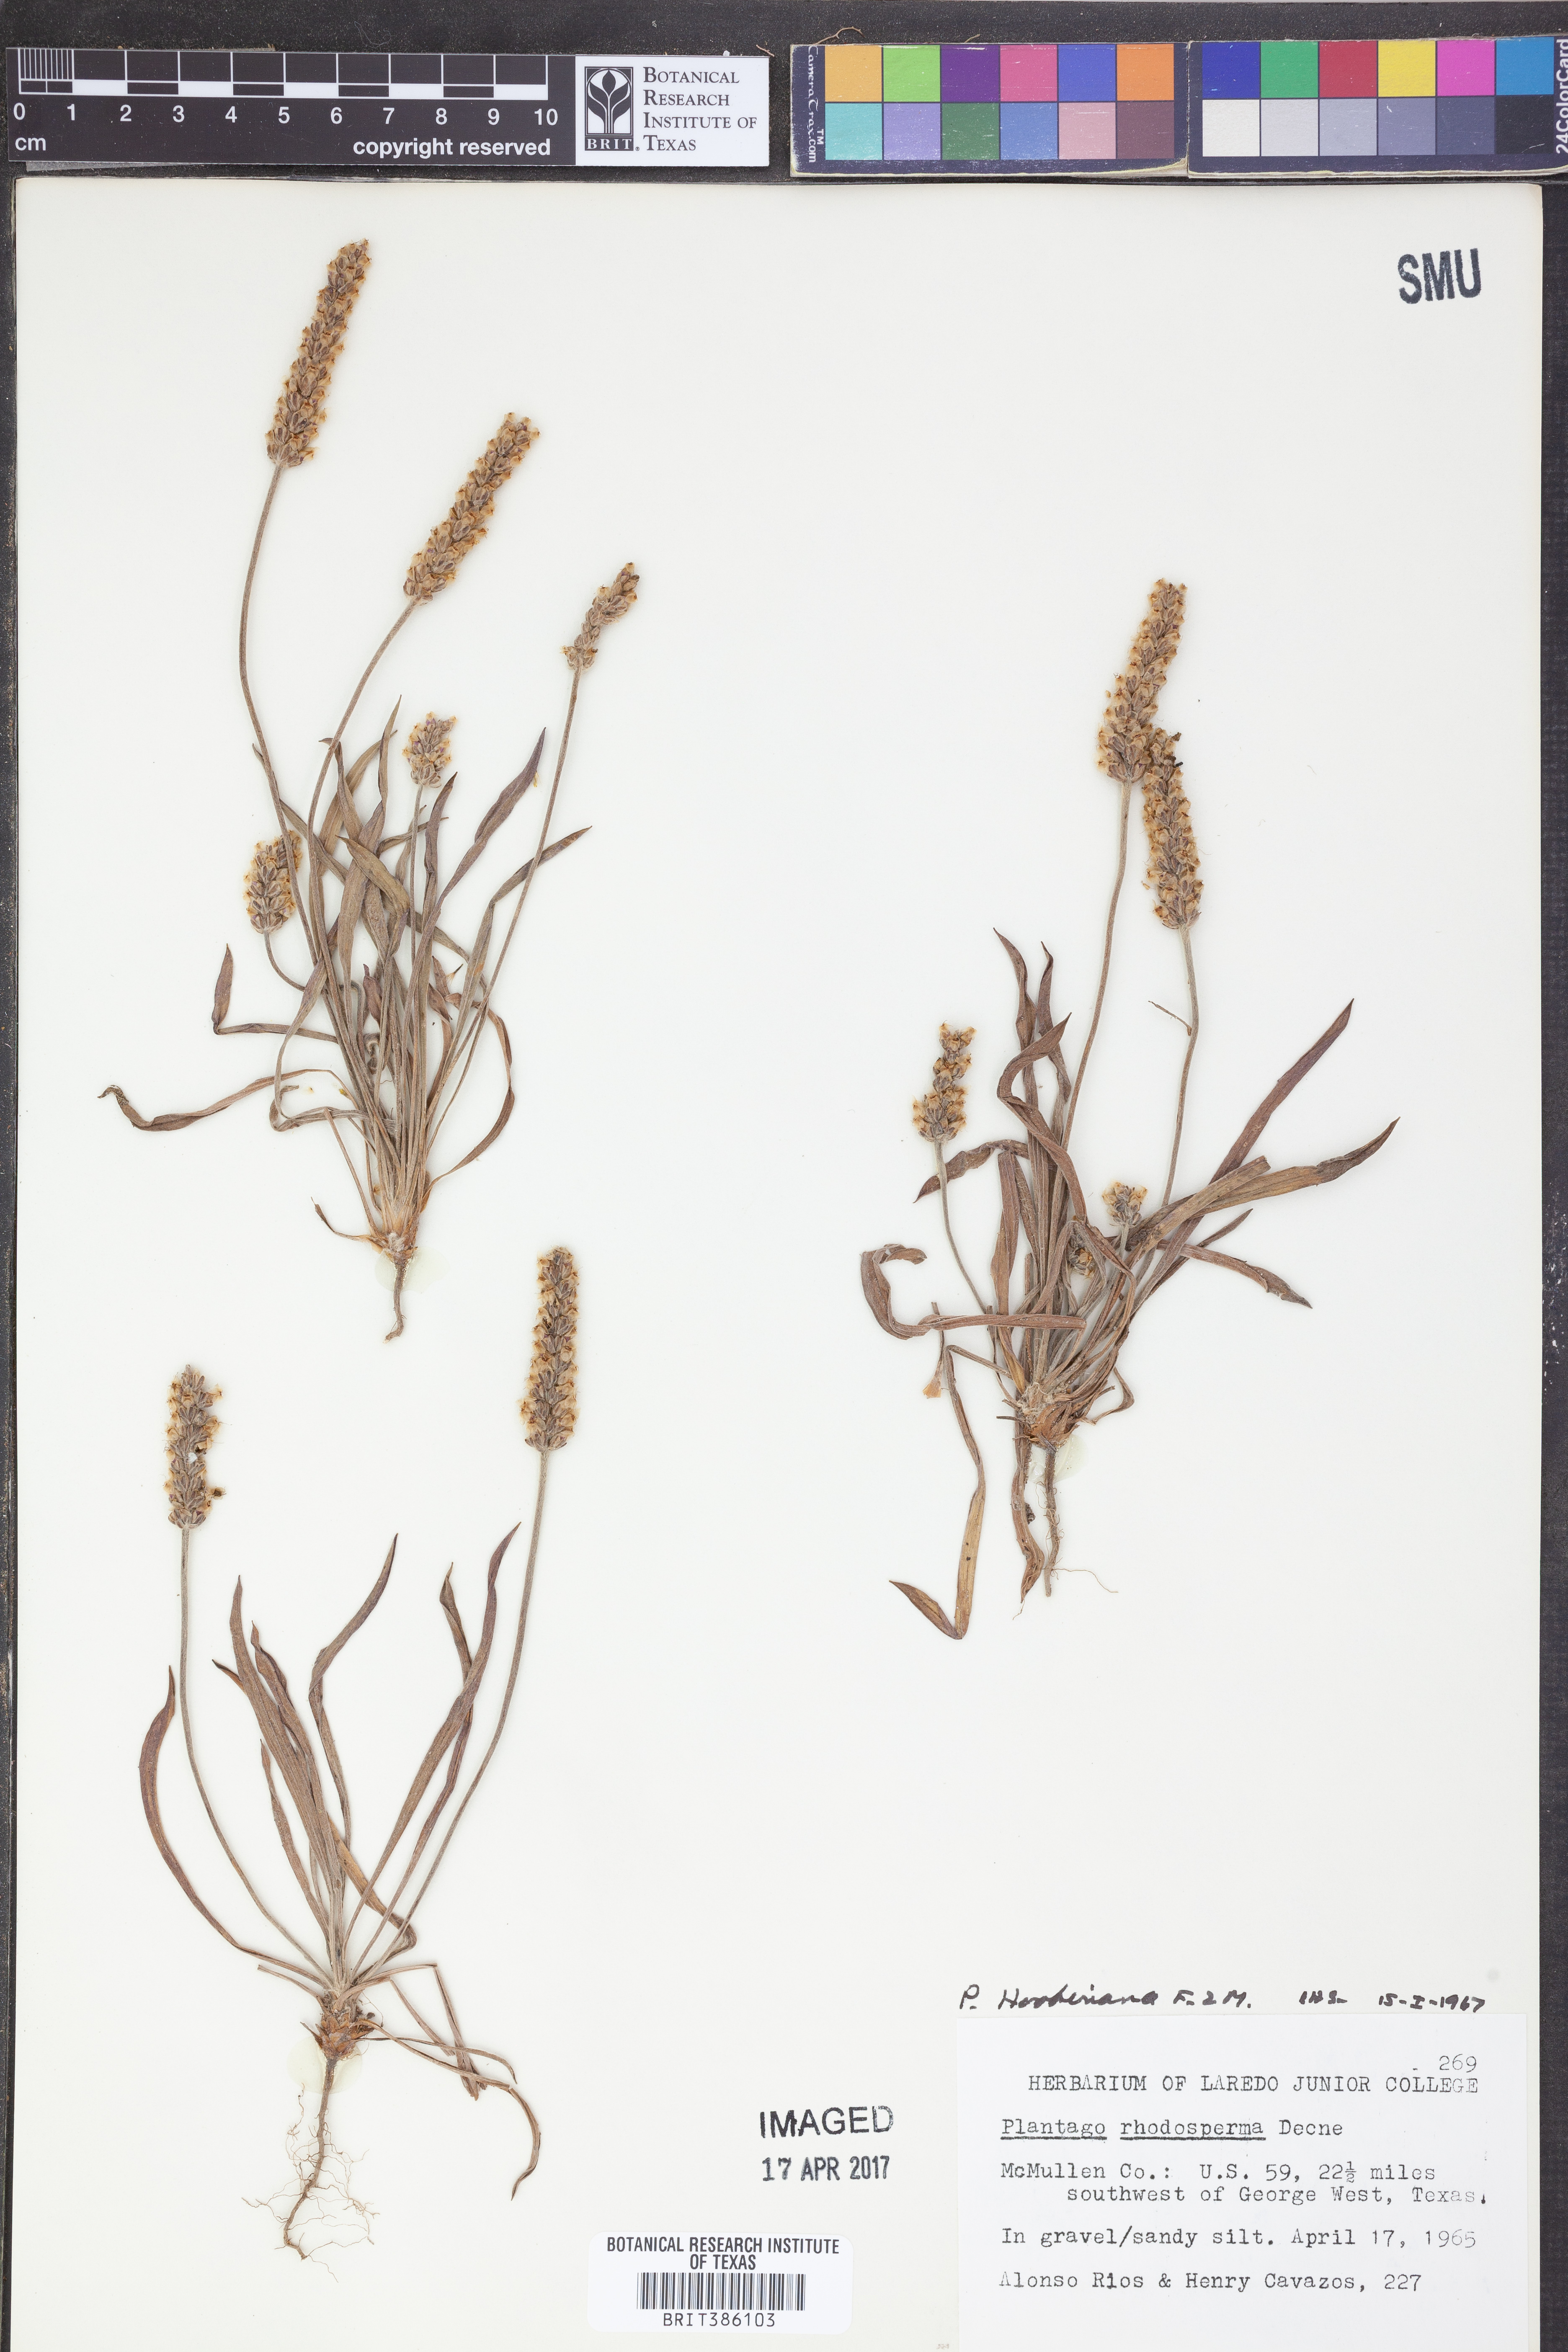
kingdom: Plantae
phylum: Tracheophyta
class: Magnoliopsida
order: Lamiales
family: Plantaginaceae
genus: Plantago
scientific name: Plantago
